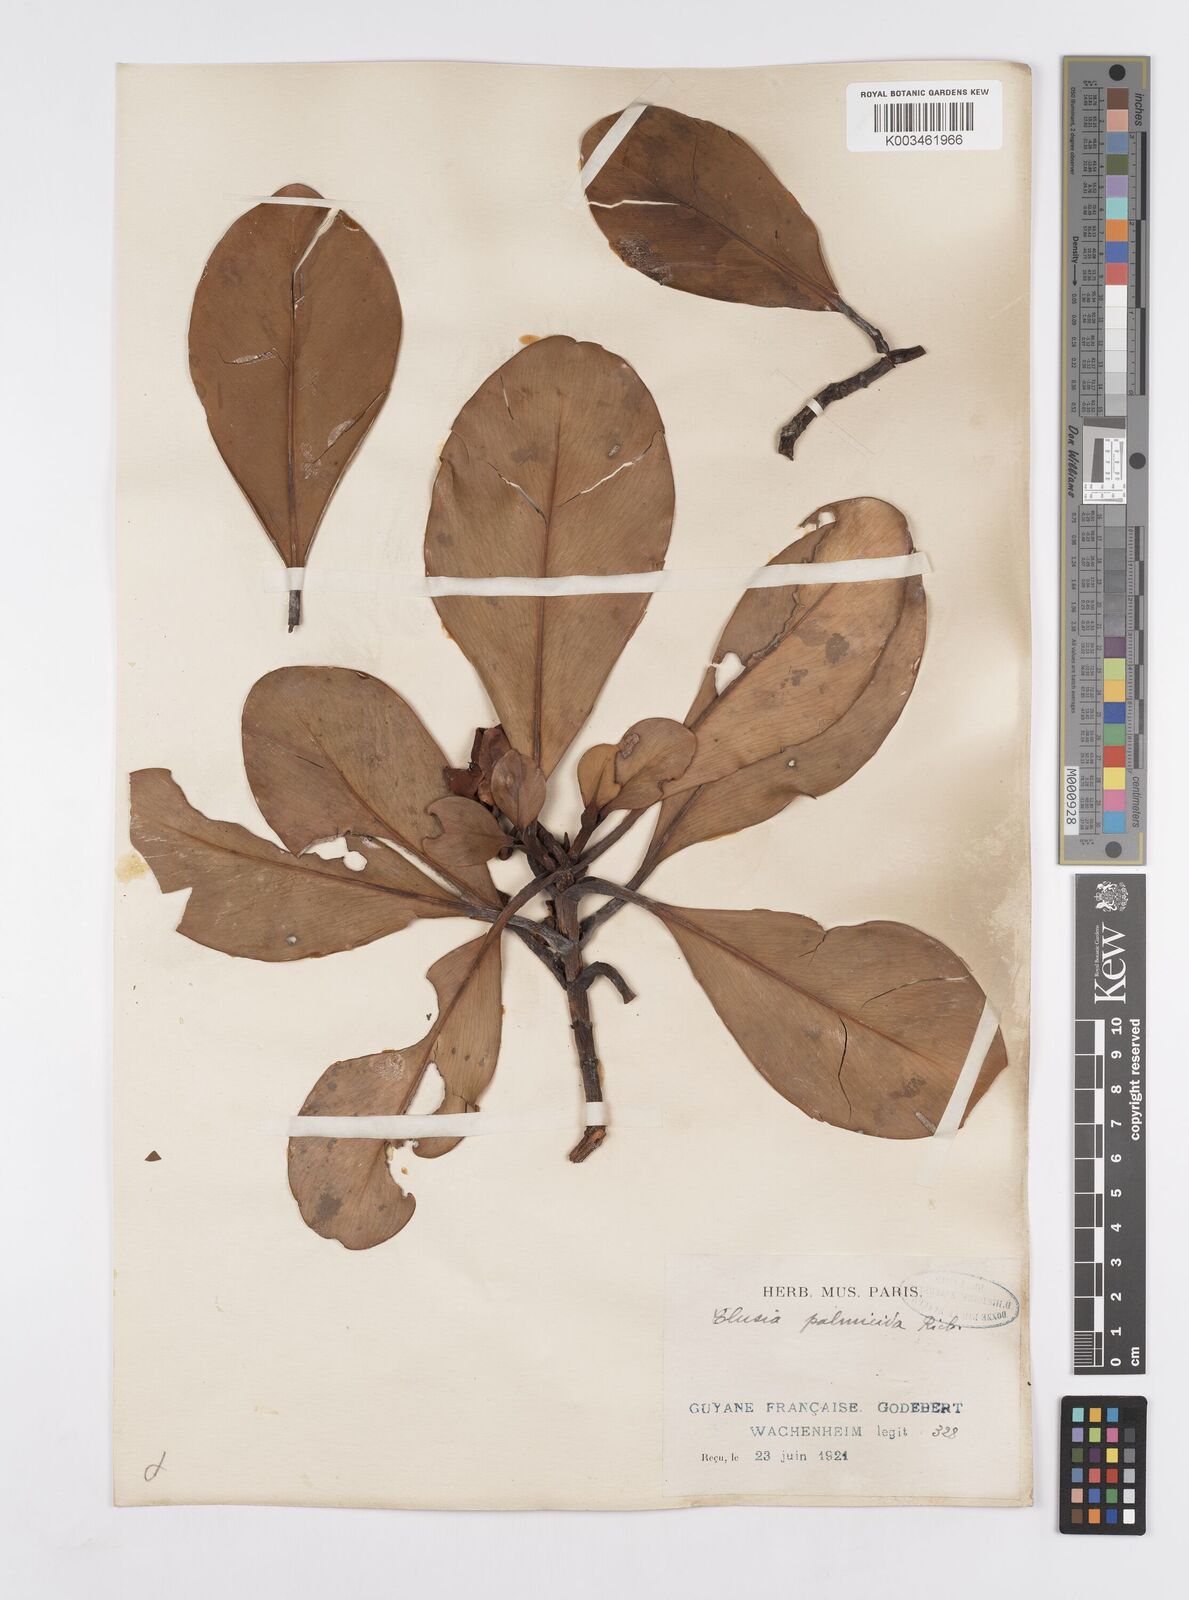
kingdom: Plantae
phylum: Tracheophyta
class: Magnoliopsida
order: Malpighiales
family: Clusiaceae
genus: Clusia
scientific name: Clusia palmicida
